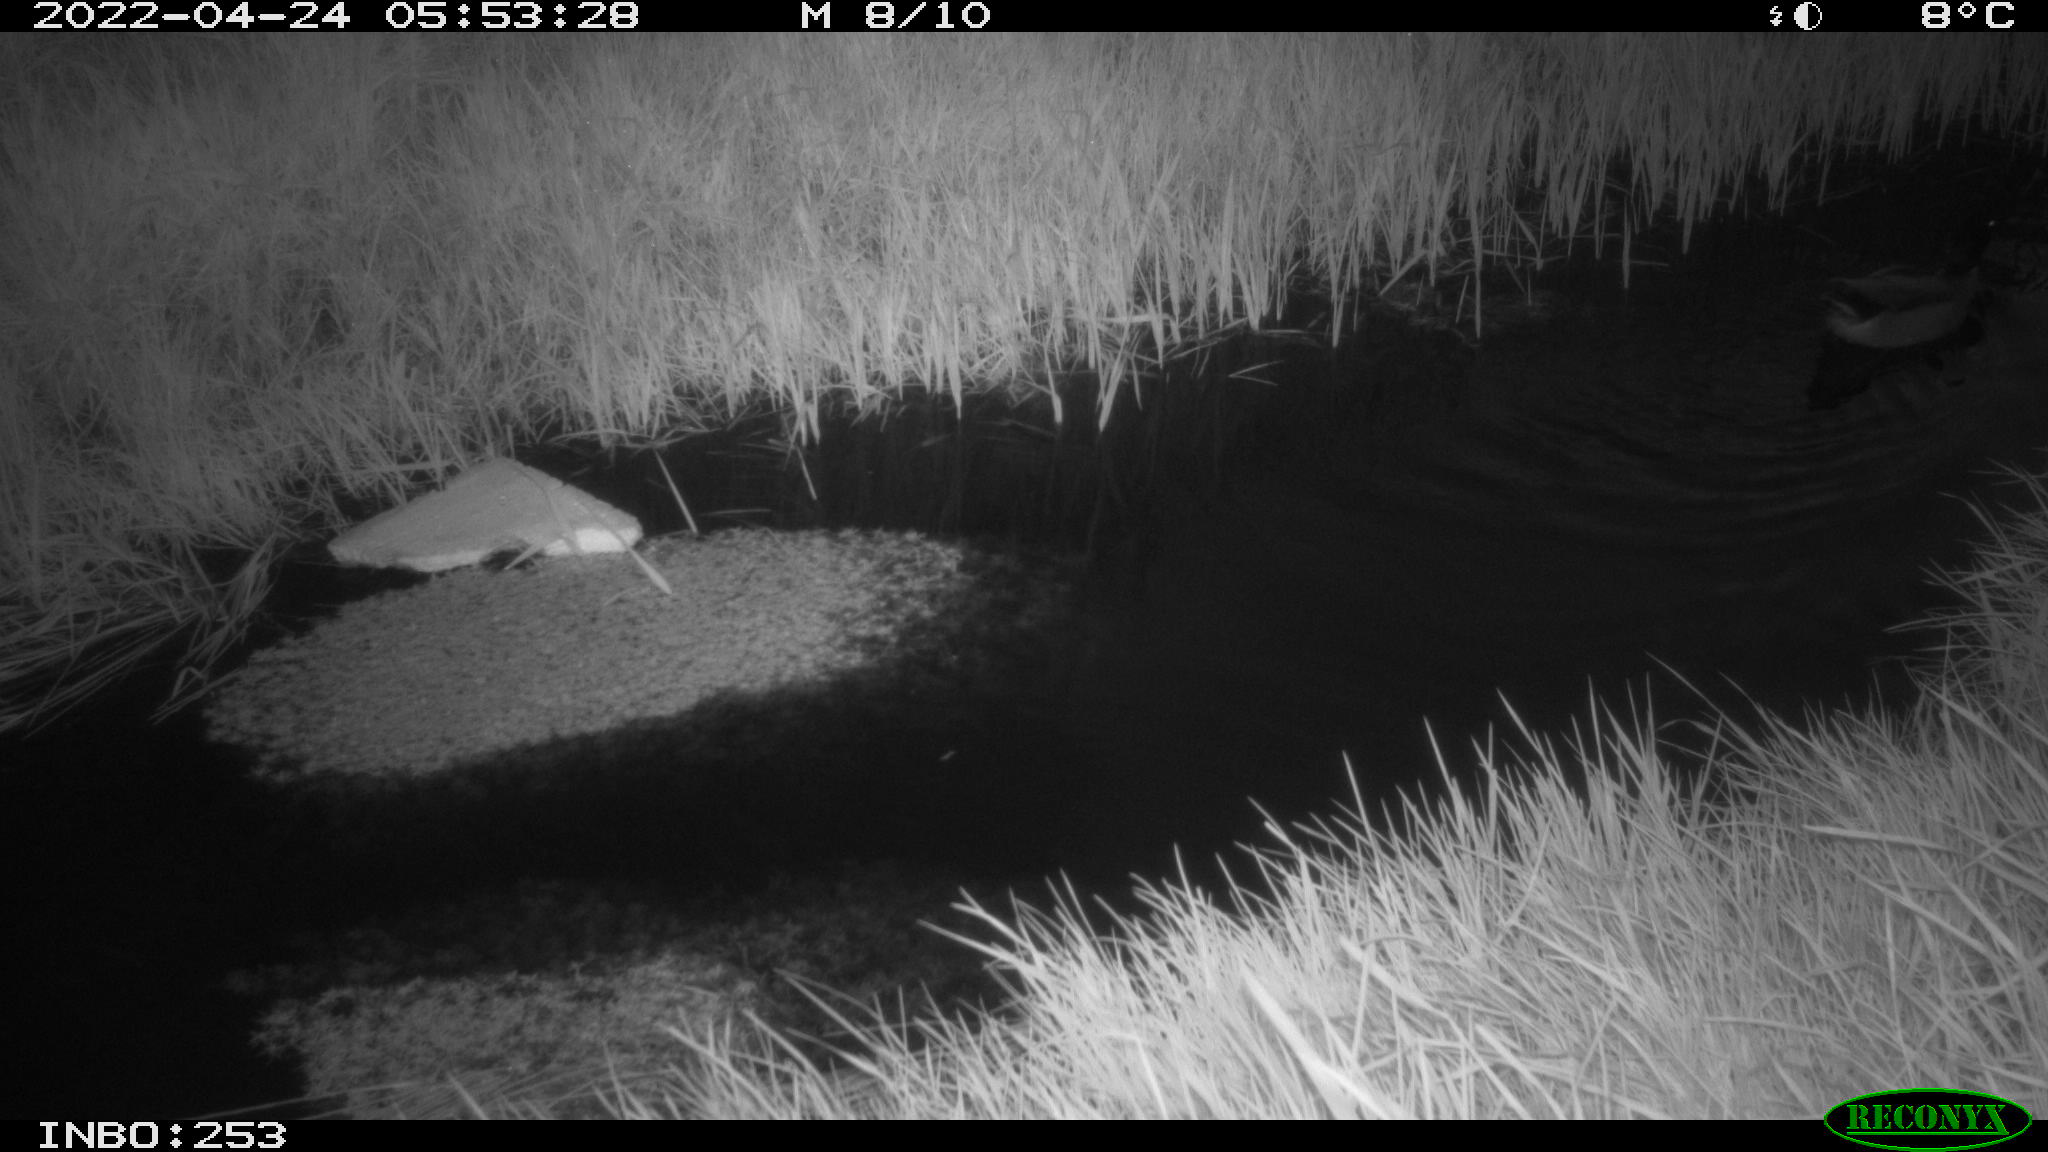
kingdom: Animalia
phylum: Chordata
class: Aves
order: Anseriformes
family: Anatidae
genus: Anas
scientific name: Anas platyrhynchos
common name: Mallard
